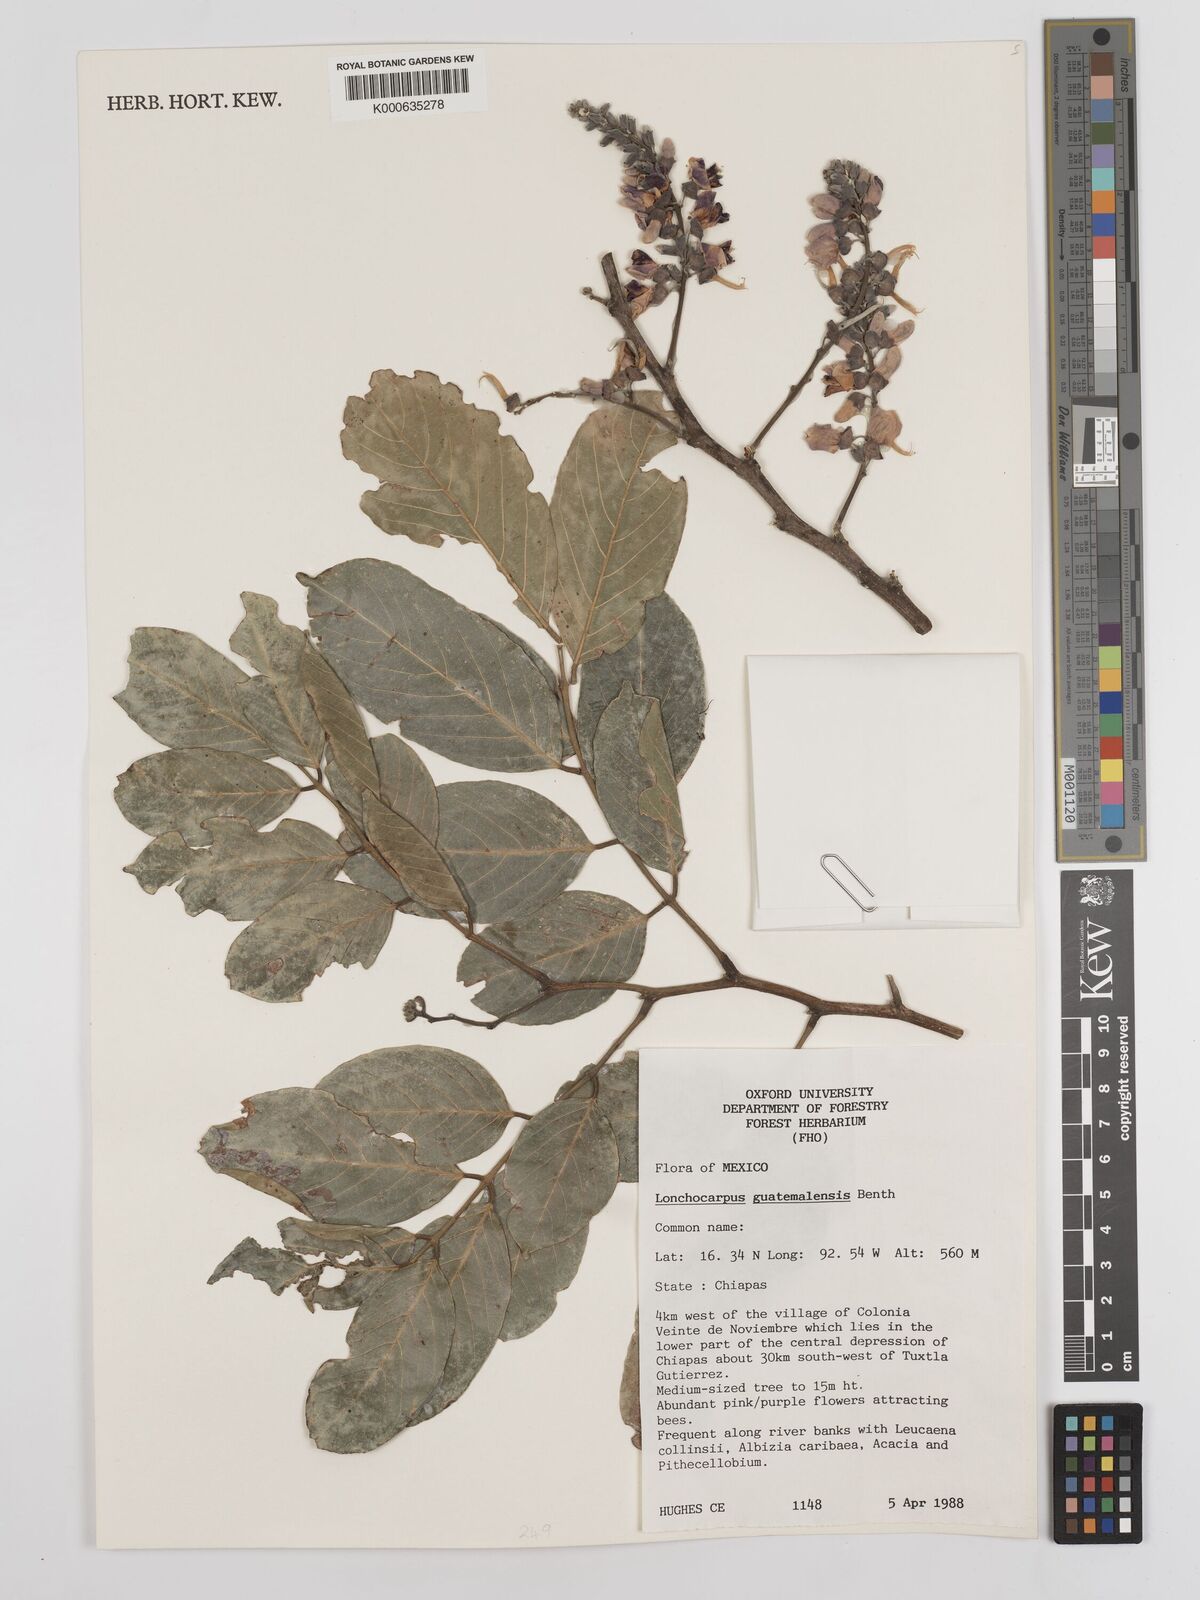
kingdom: Plantae
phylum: Tracheophyta
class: Magnoliopsida
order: Fabales
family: Fabaceae
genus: Lonchocarpus
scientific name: Lonchocarpus guatemalensis
